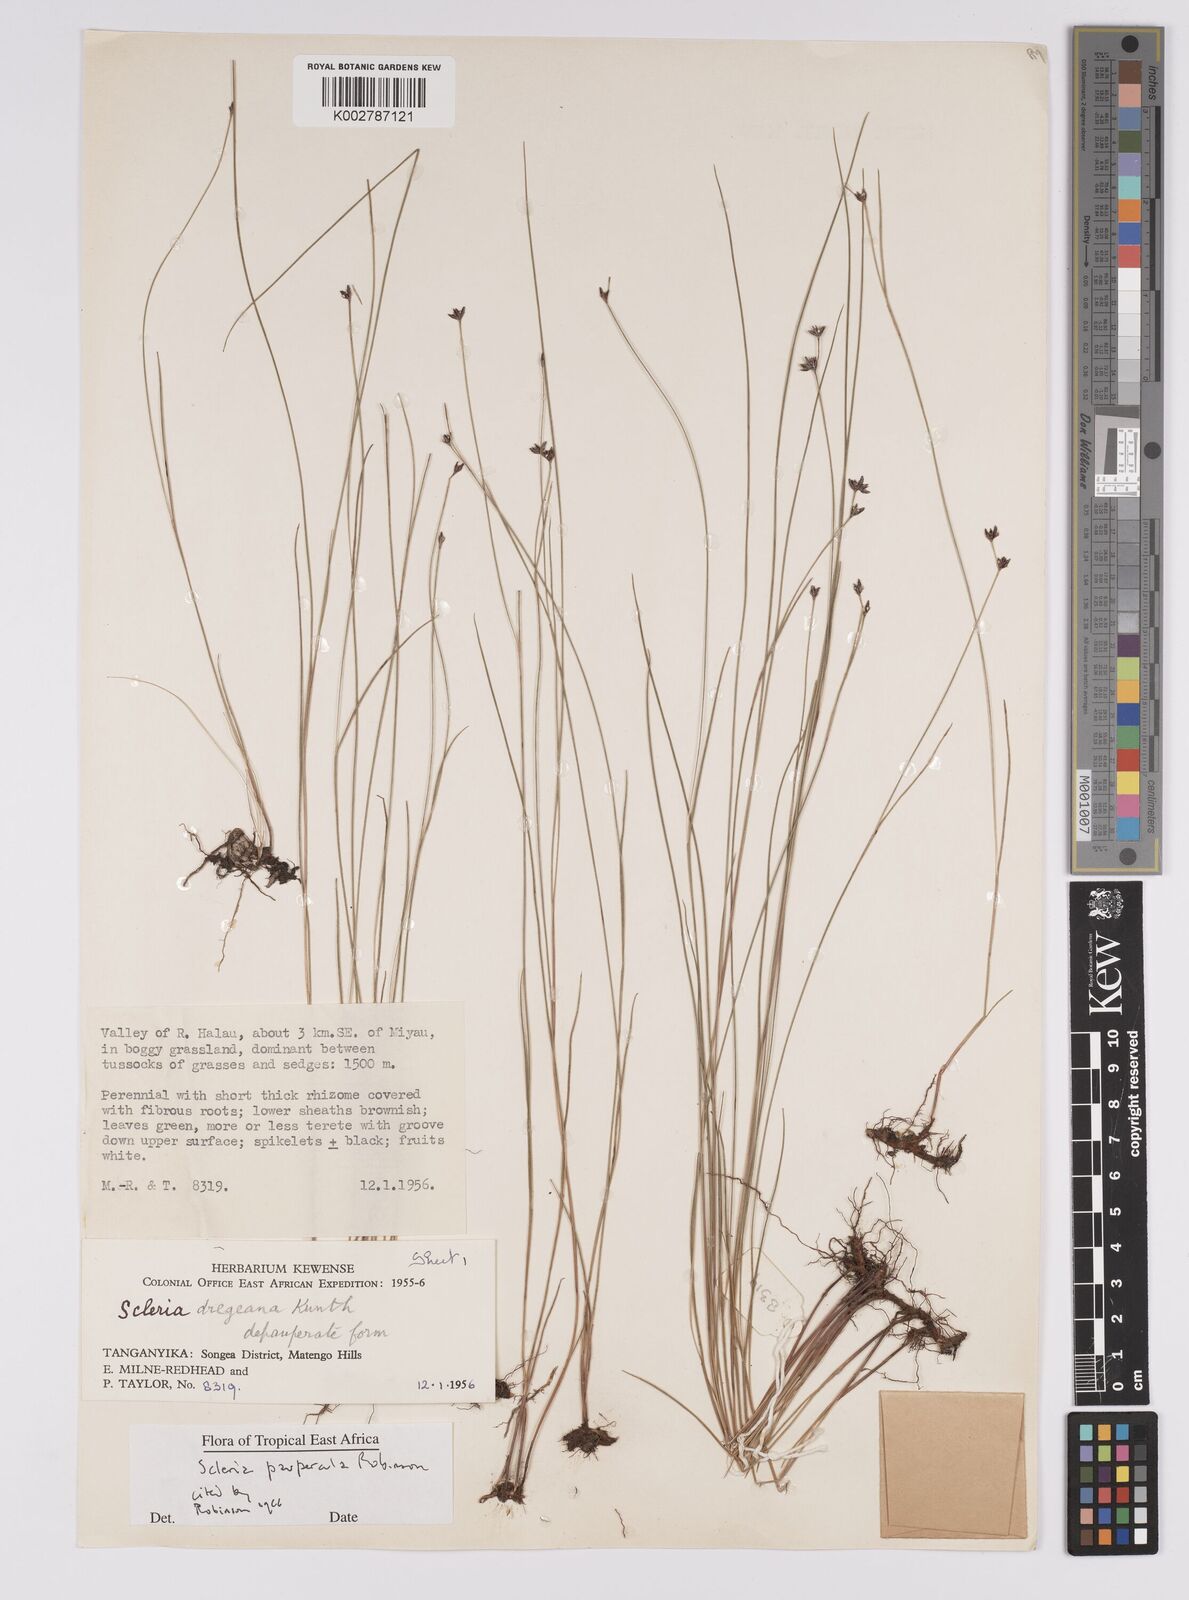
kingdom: Plantae
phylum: Tracheophyta
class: Liliopsida
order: Poales
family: Cyperaceae
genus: Scleria
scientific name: Scleria paupercula
